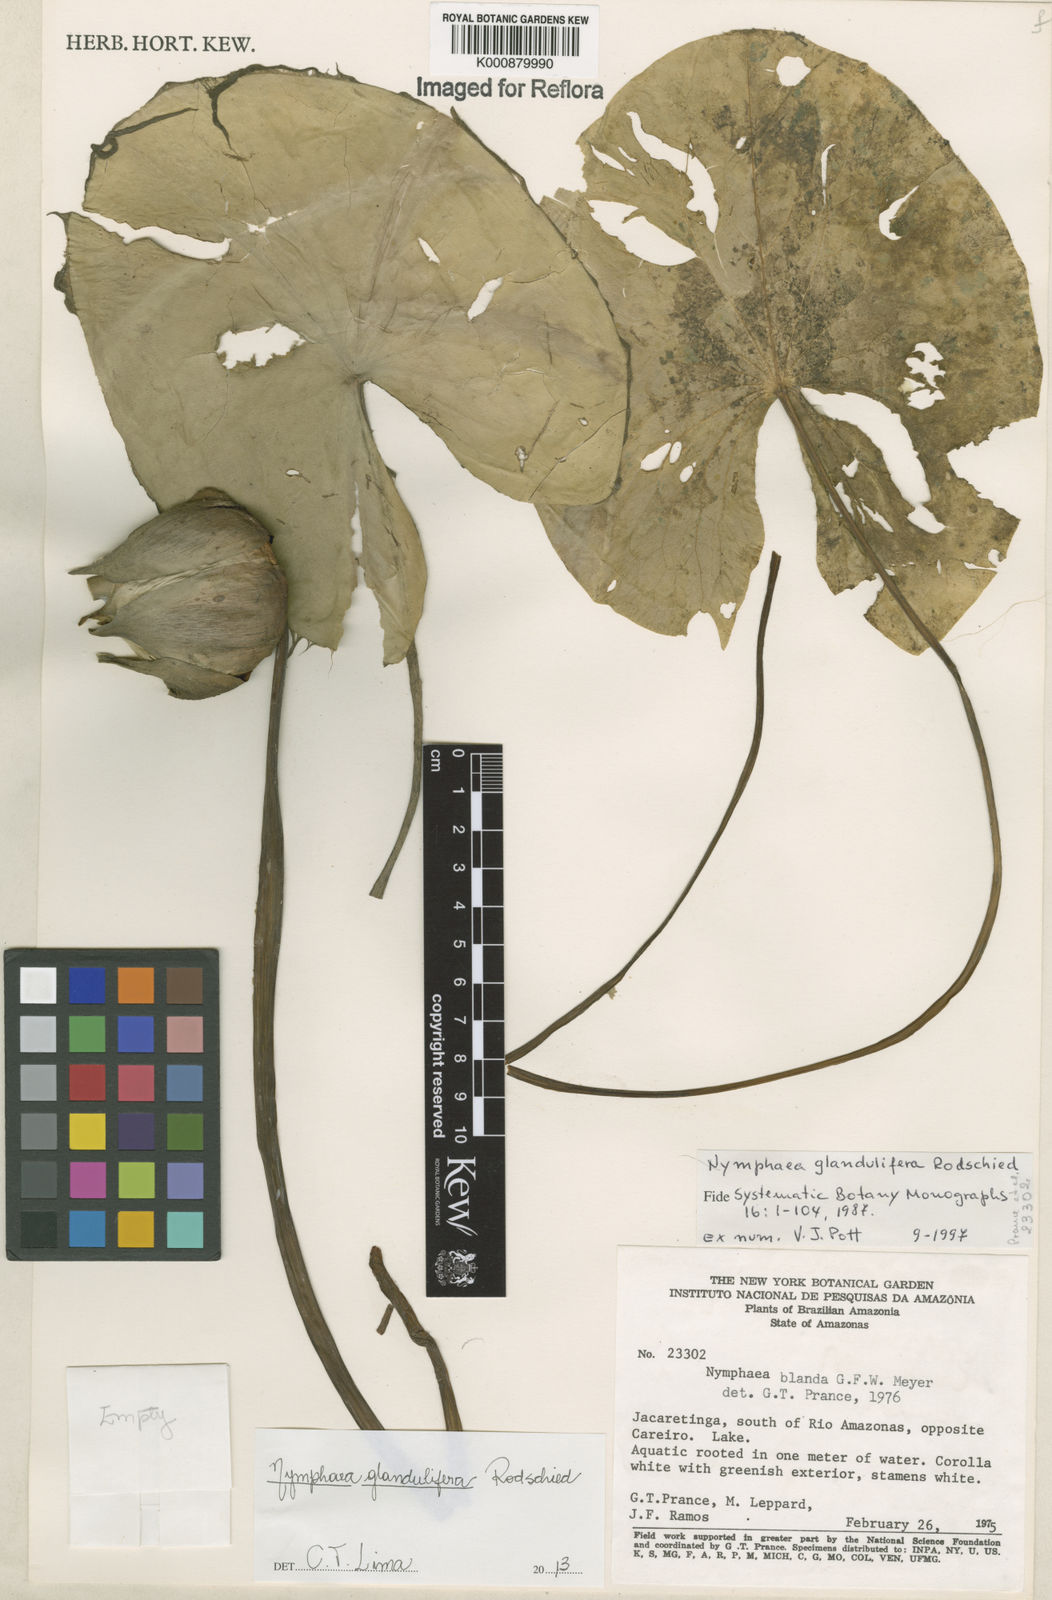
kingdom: Plantae
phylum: Tracheophyta
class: Magnoliopsida
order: Nymphaeales
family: Nymphaeaceae
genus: Nymphaea
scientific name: Nymphaea glandulifera
